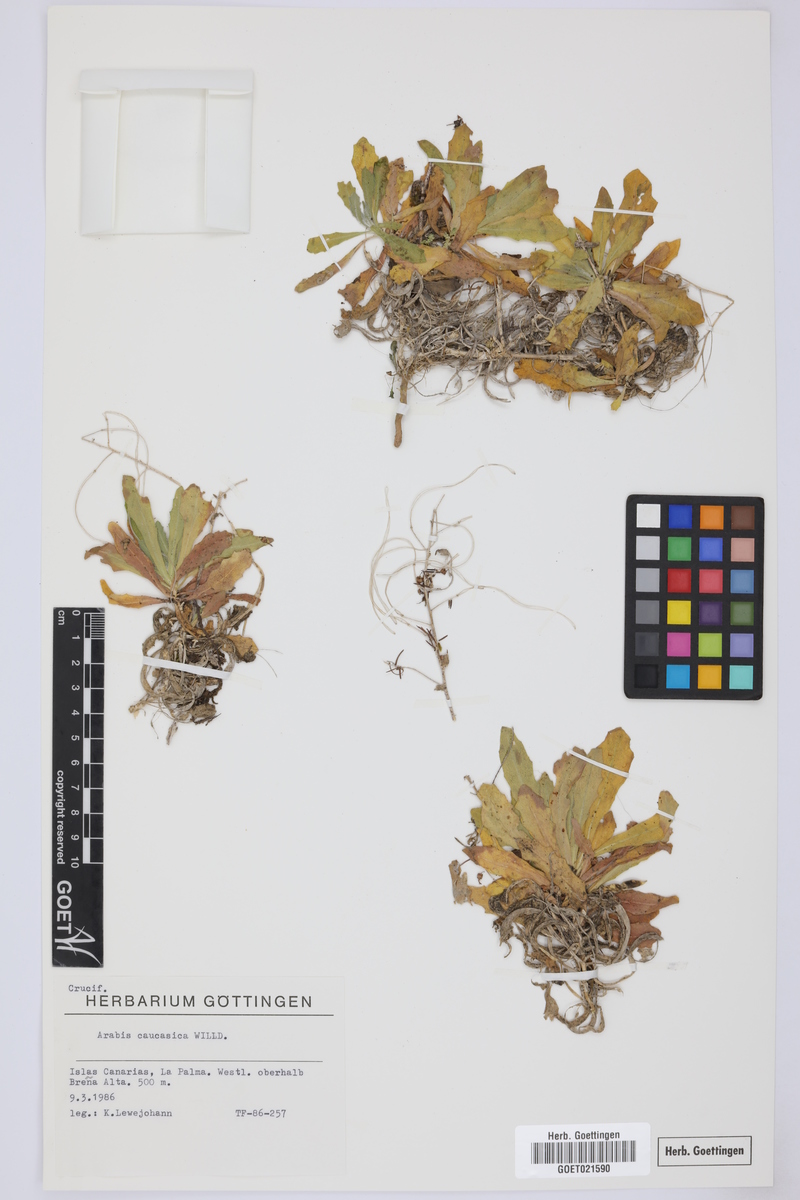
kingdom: Plantae
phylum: Tracheophyta
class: Magnoliopsida
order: Brassicales
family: Brassicaceae
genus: Arabis
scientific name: Arabis caucasica
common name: Gray rockcress
